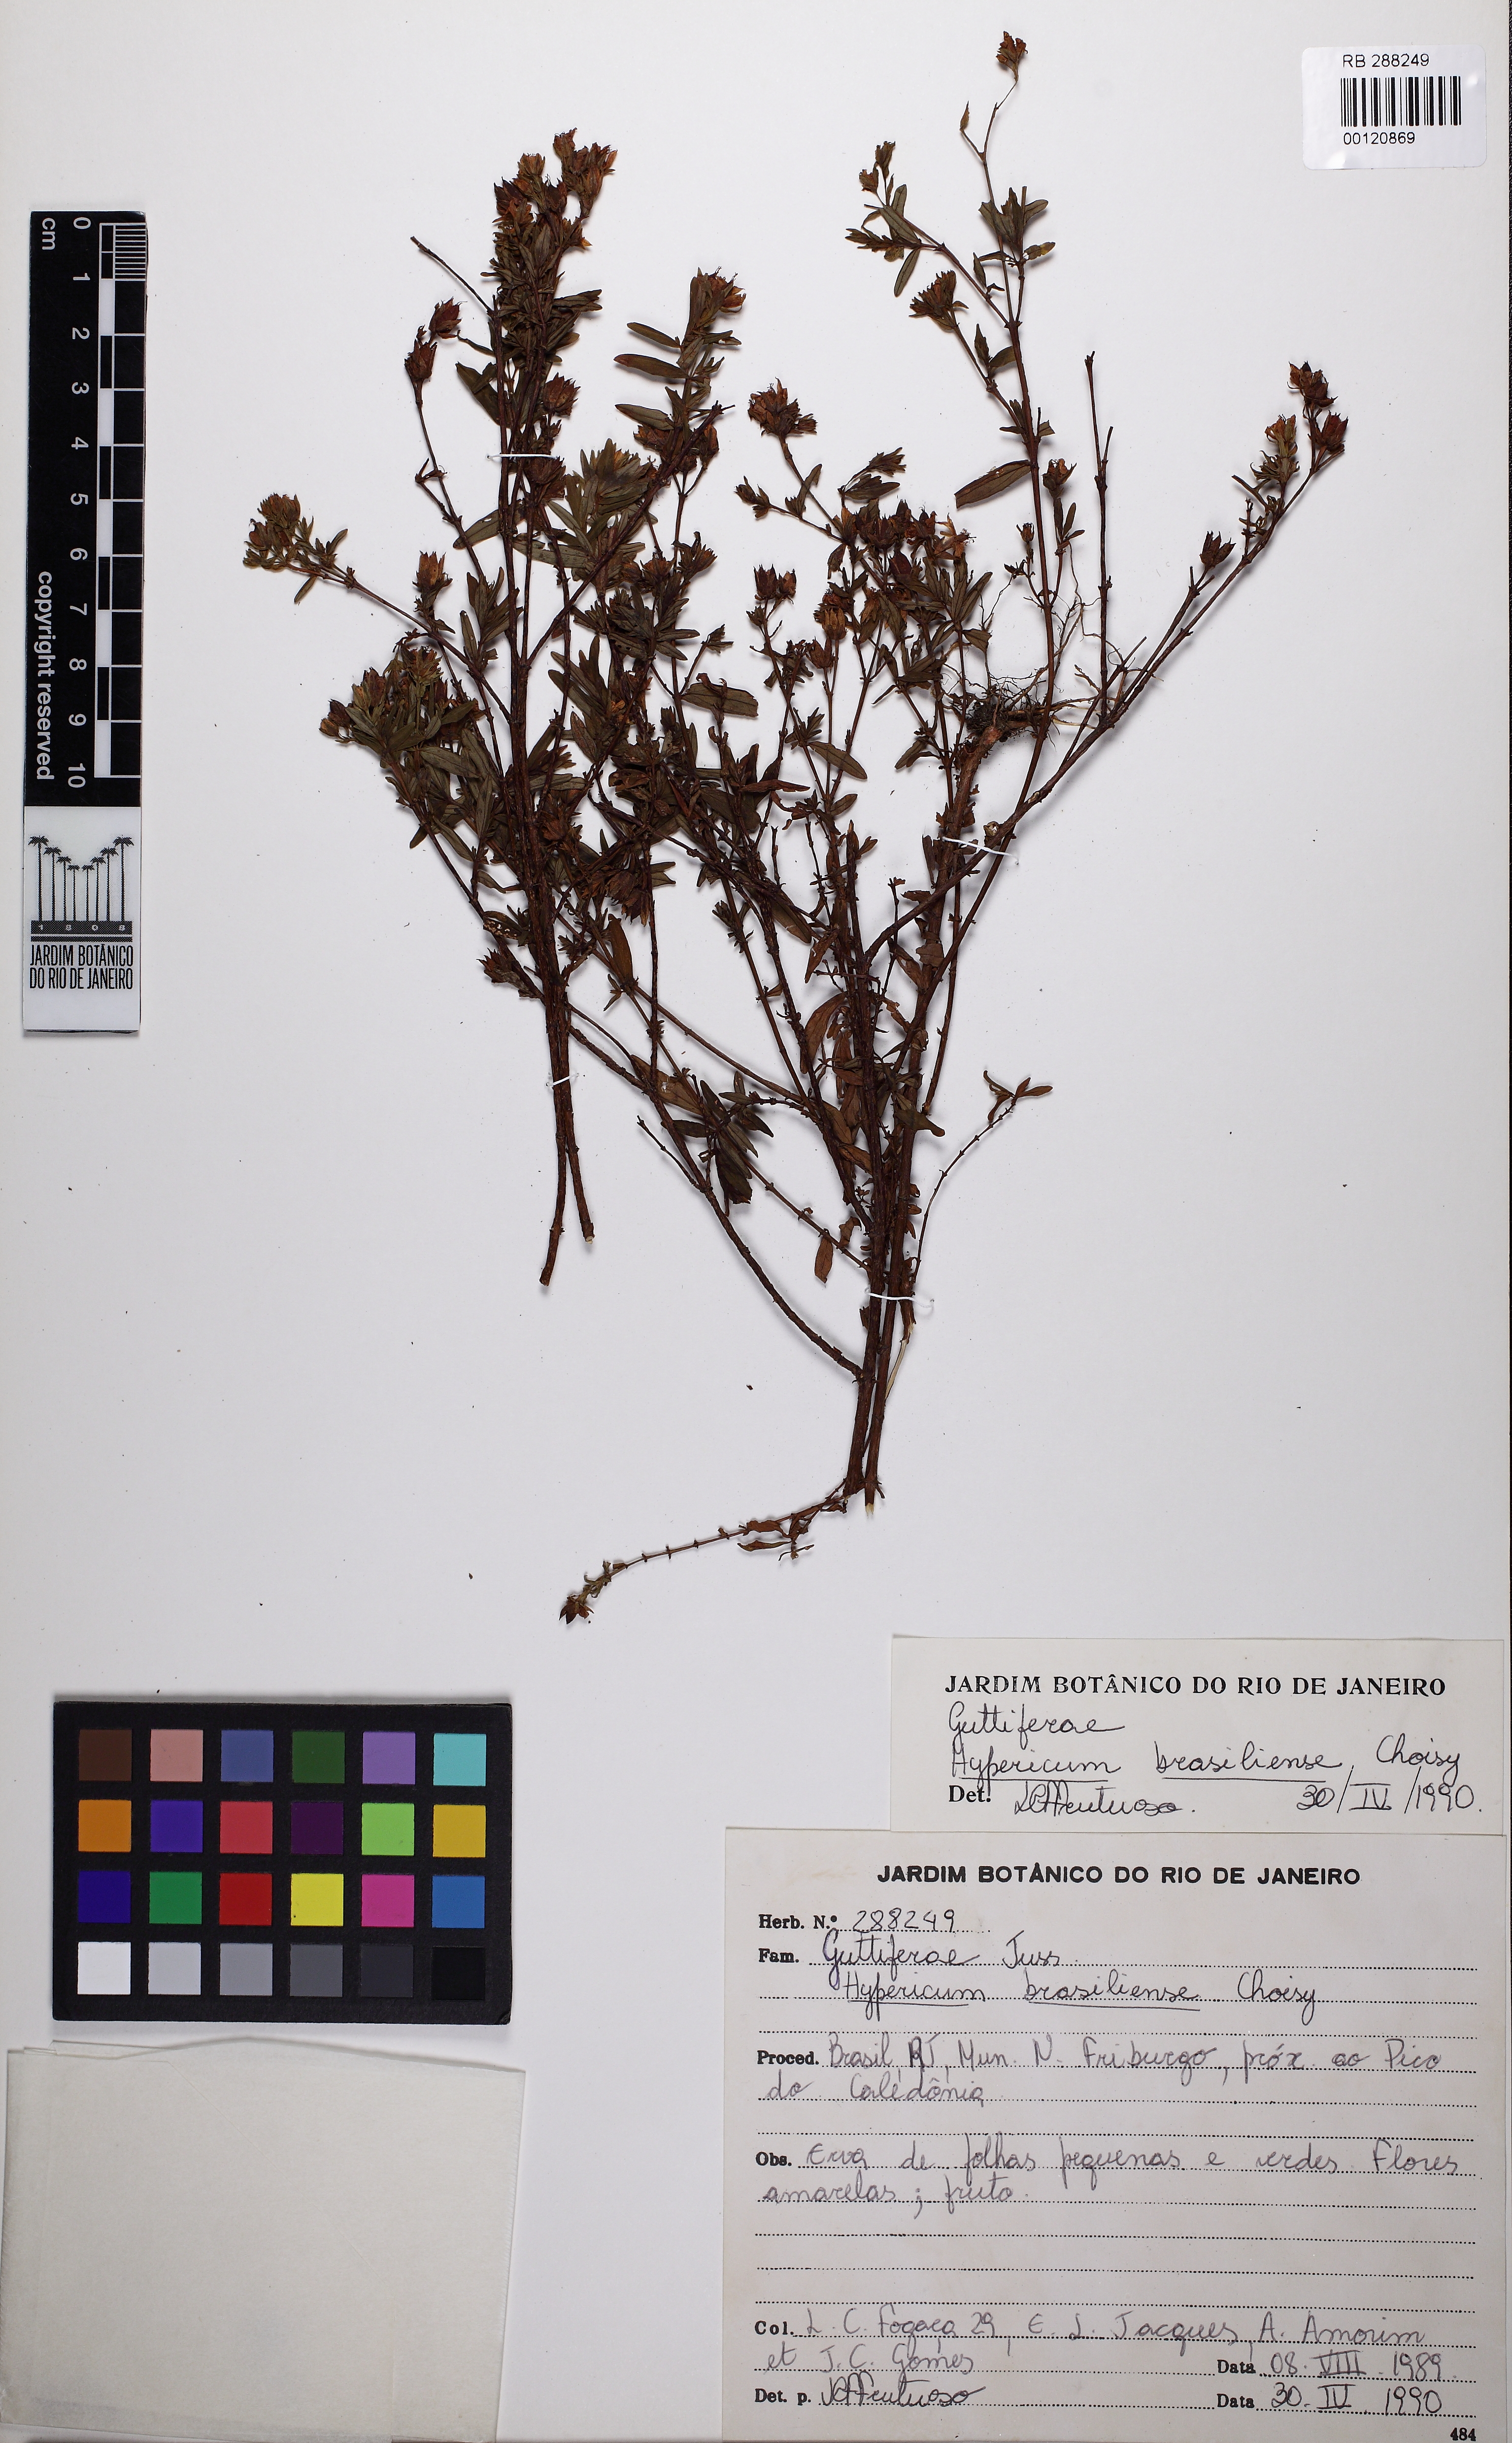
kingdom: Plantae
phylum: Tracheophyta
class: Magnoliopsida
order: Malpighiales
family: Hypericaceae
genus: Hypericum
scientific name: Hypericum brasiliense
